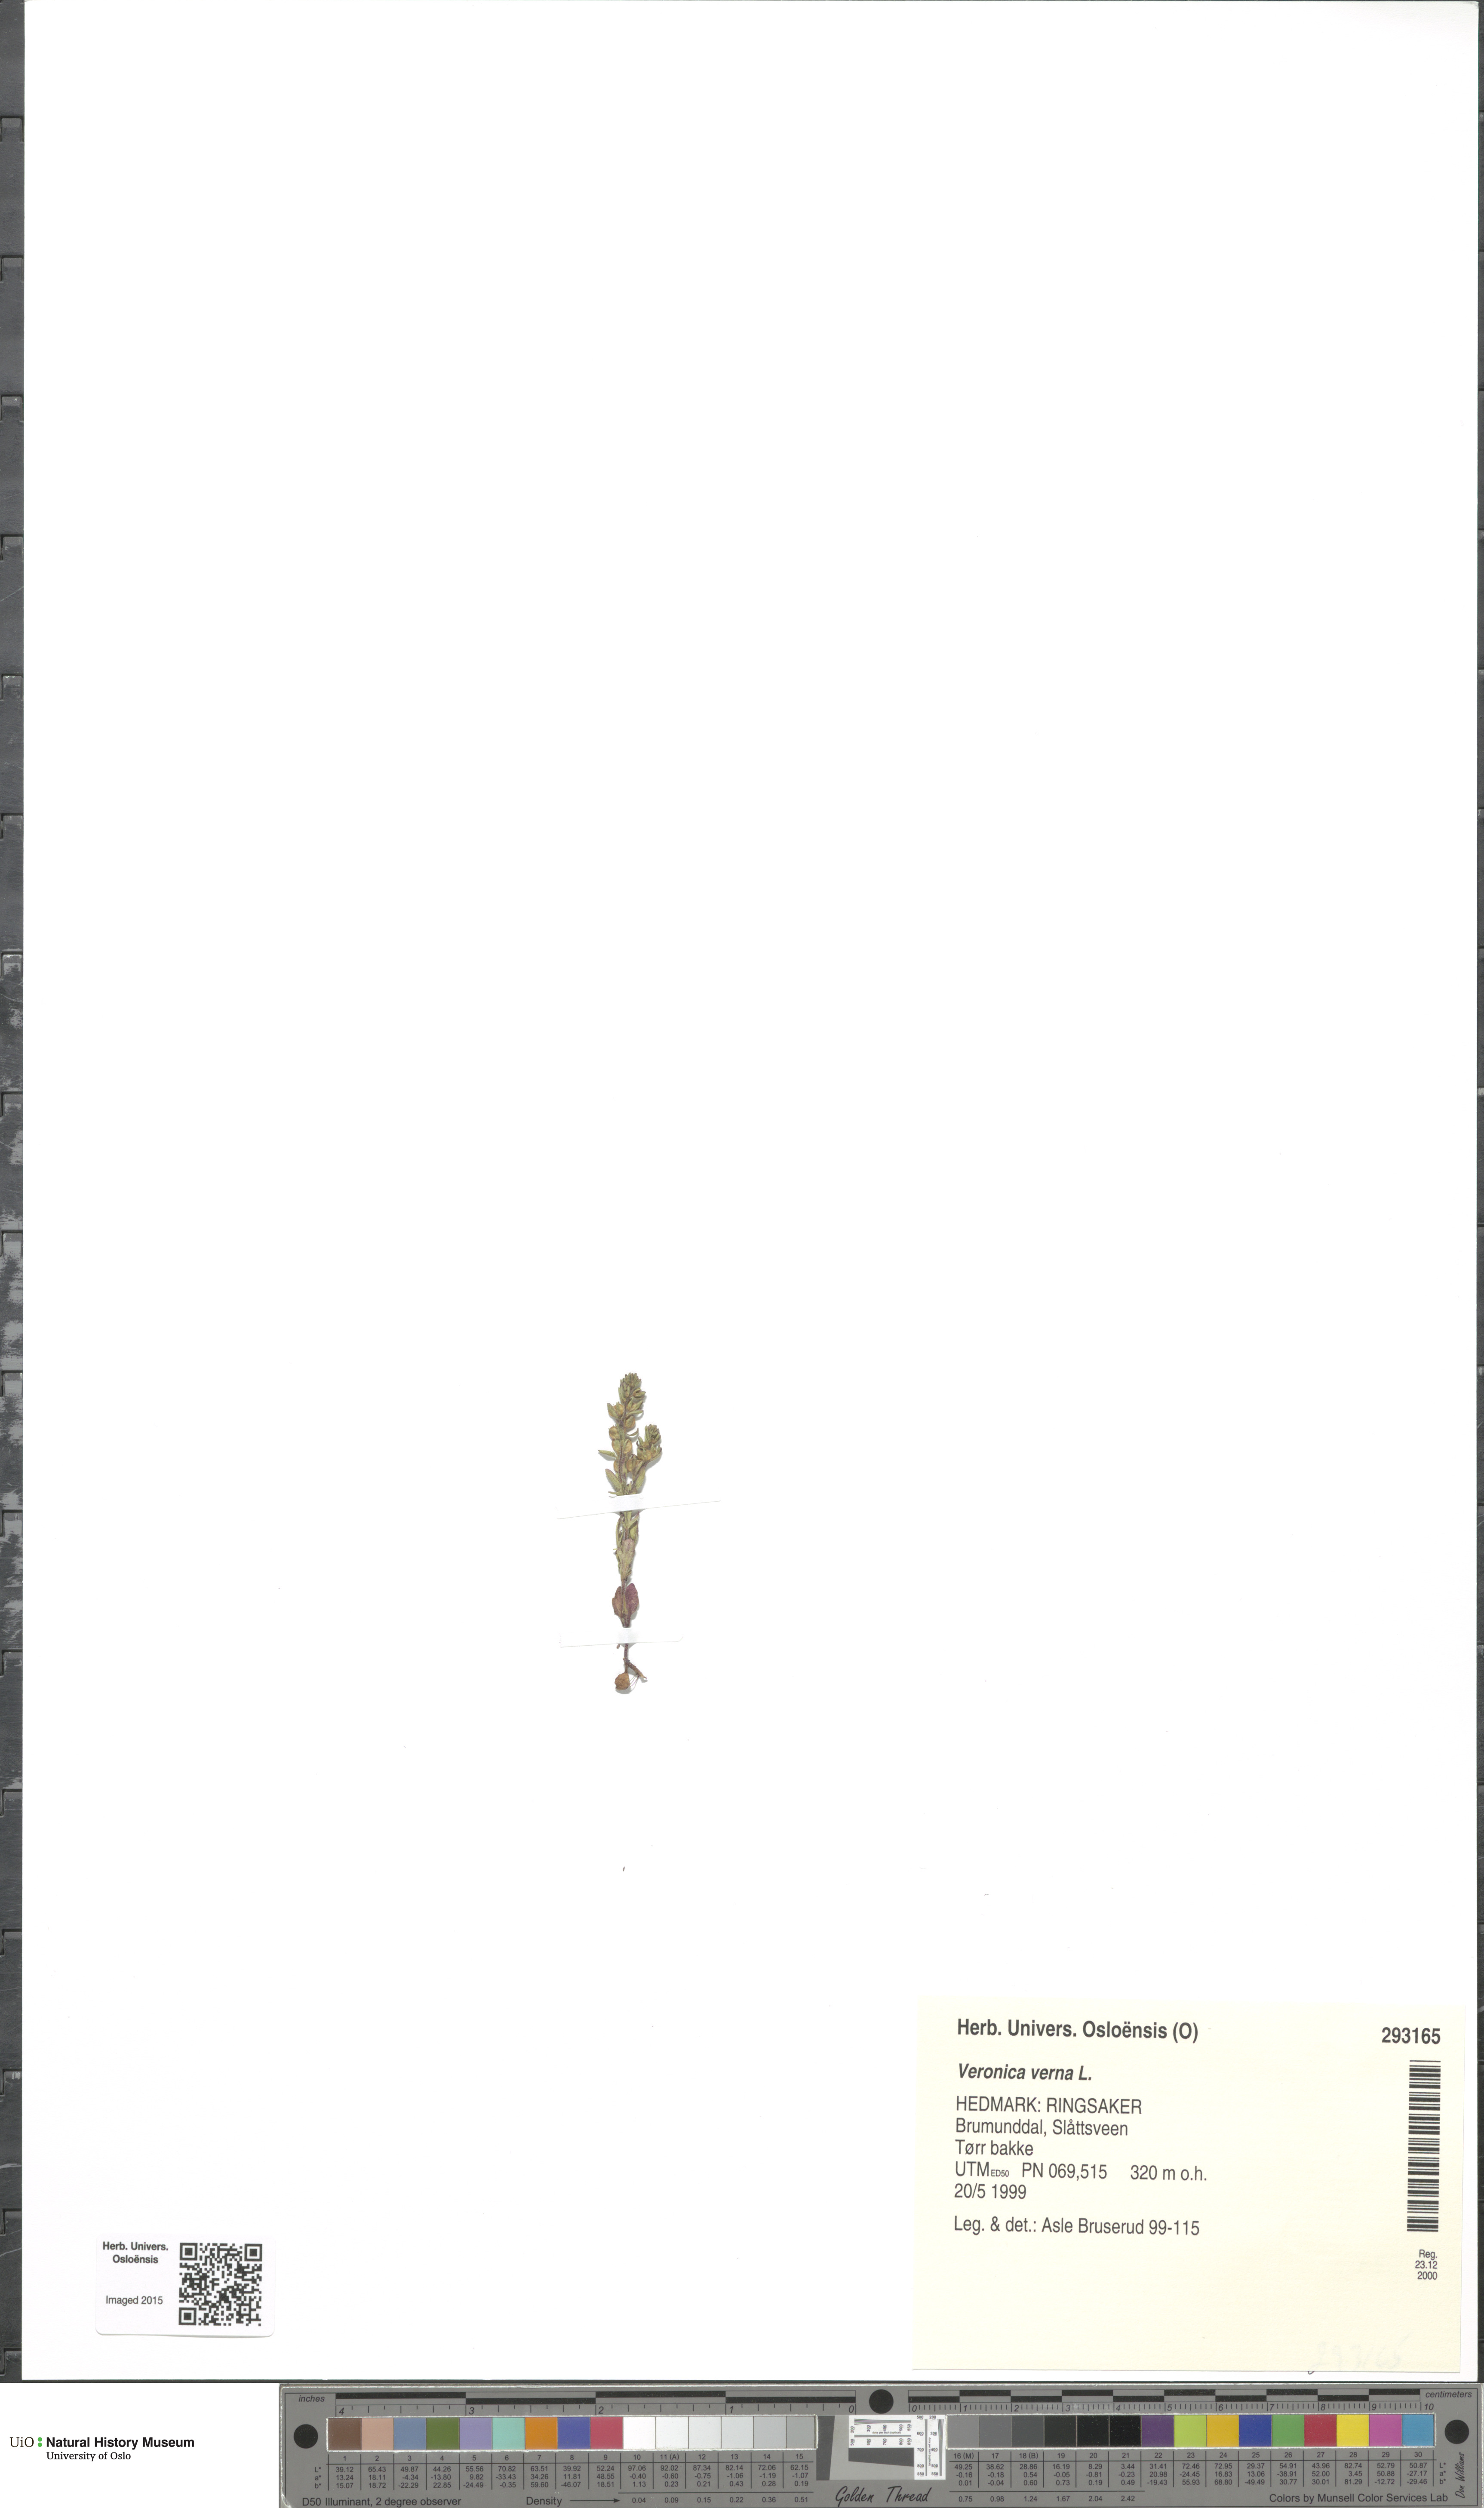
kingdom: Plantae
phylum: Tracheophyta
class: Magnoliopsida
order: Lamiales
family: Plantaginaceae
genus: Veronica
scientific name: Veronica verna
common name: Spring speedwell
